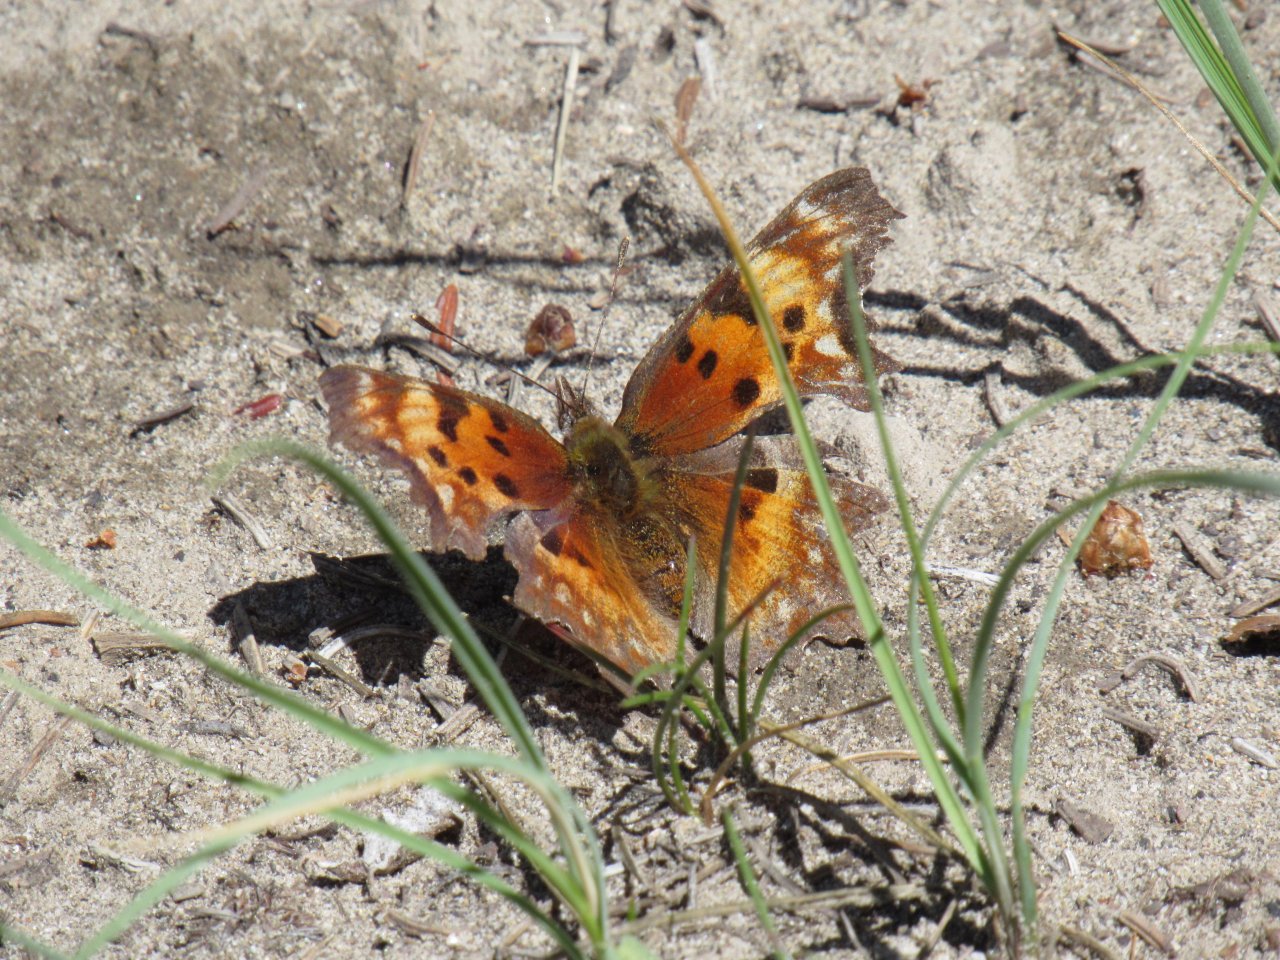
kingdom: Animalia
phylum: Arthropoda
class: Insecta
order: Lepidoptera
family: Nymphalidae
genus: Polygonia
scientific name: Polygonia faunus
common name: Green Comma
